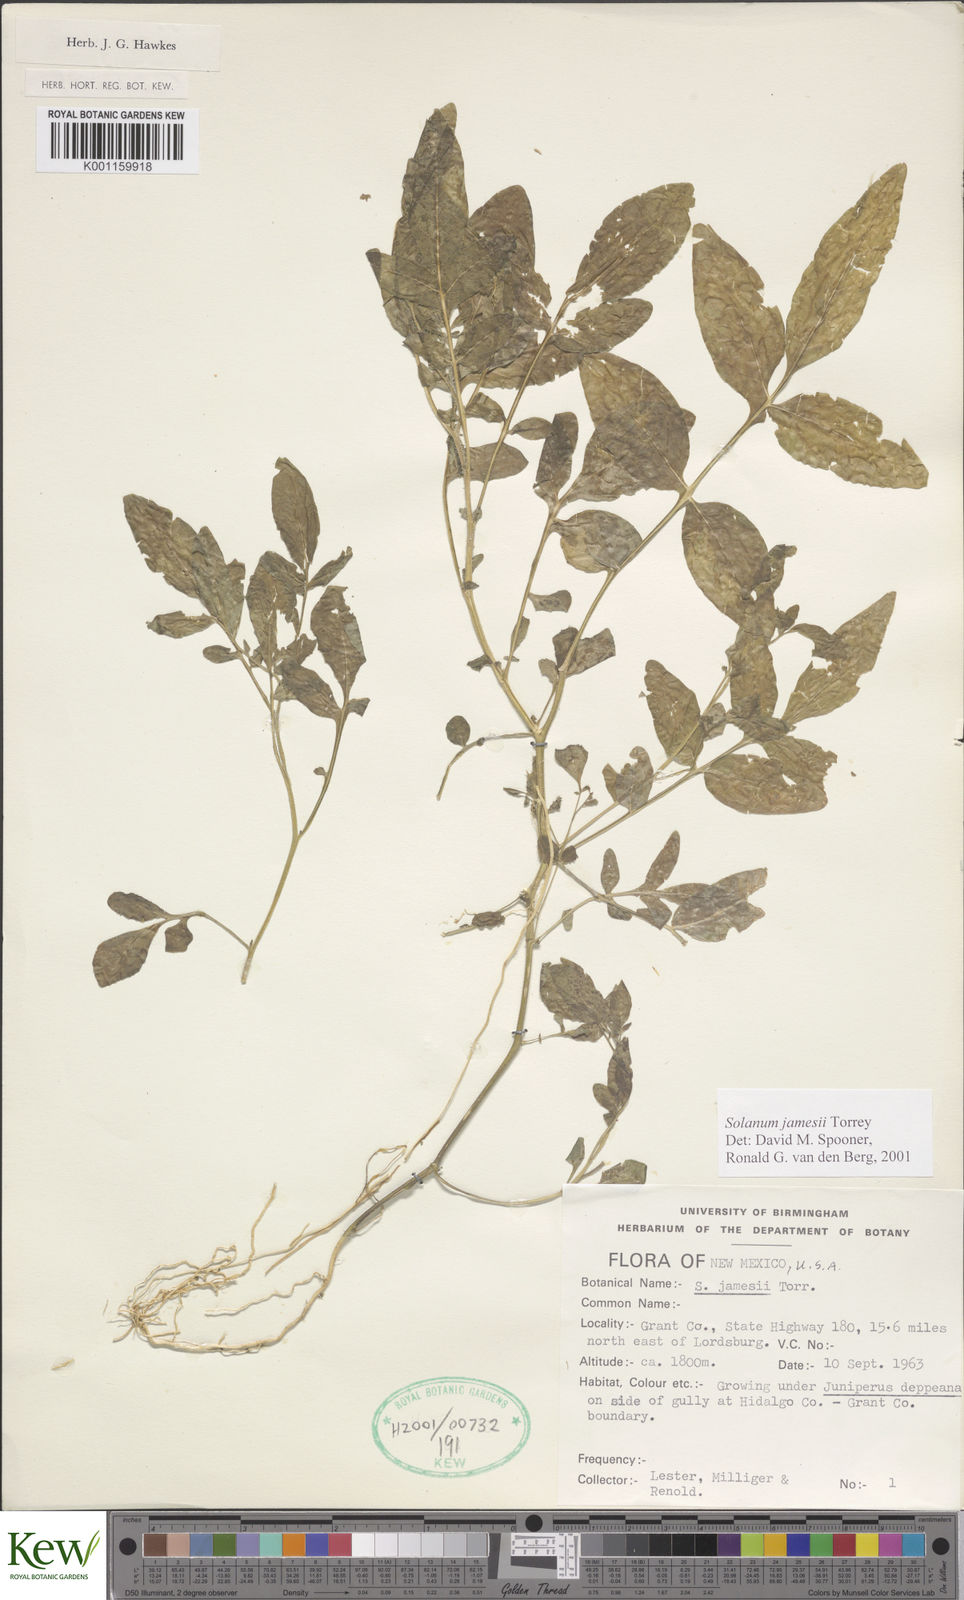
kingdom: Plantae
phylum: Tracheophyta
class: Magnoliopsida
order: Solanales
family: Solanaceae
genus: Solanum
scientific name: Solanum jamesii
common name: Wild potato
